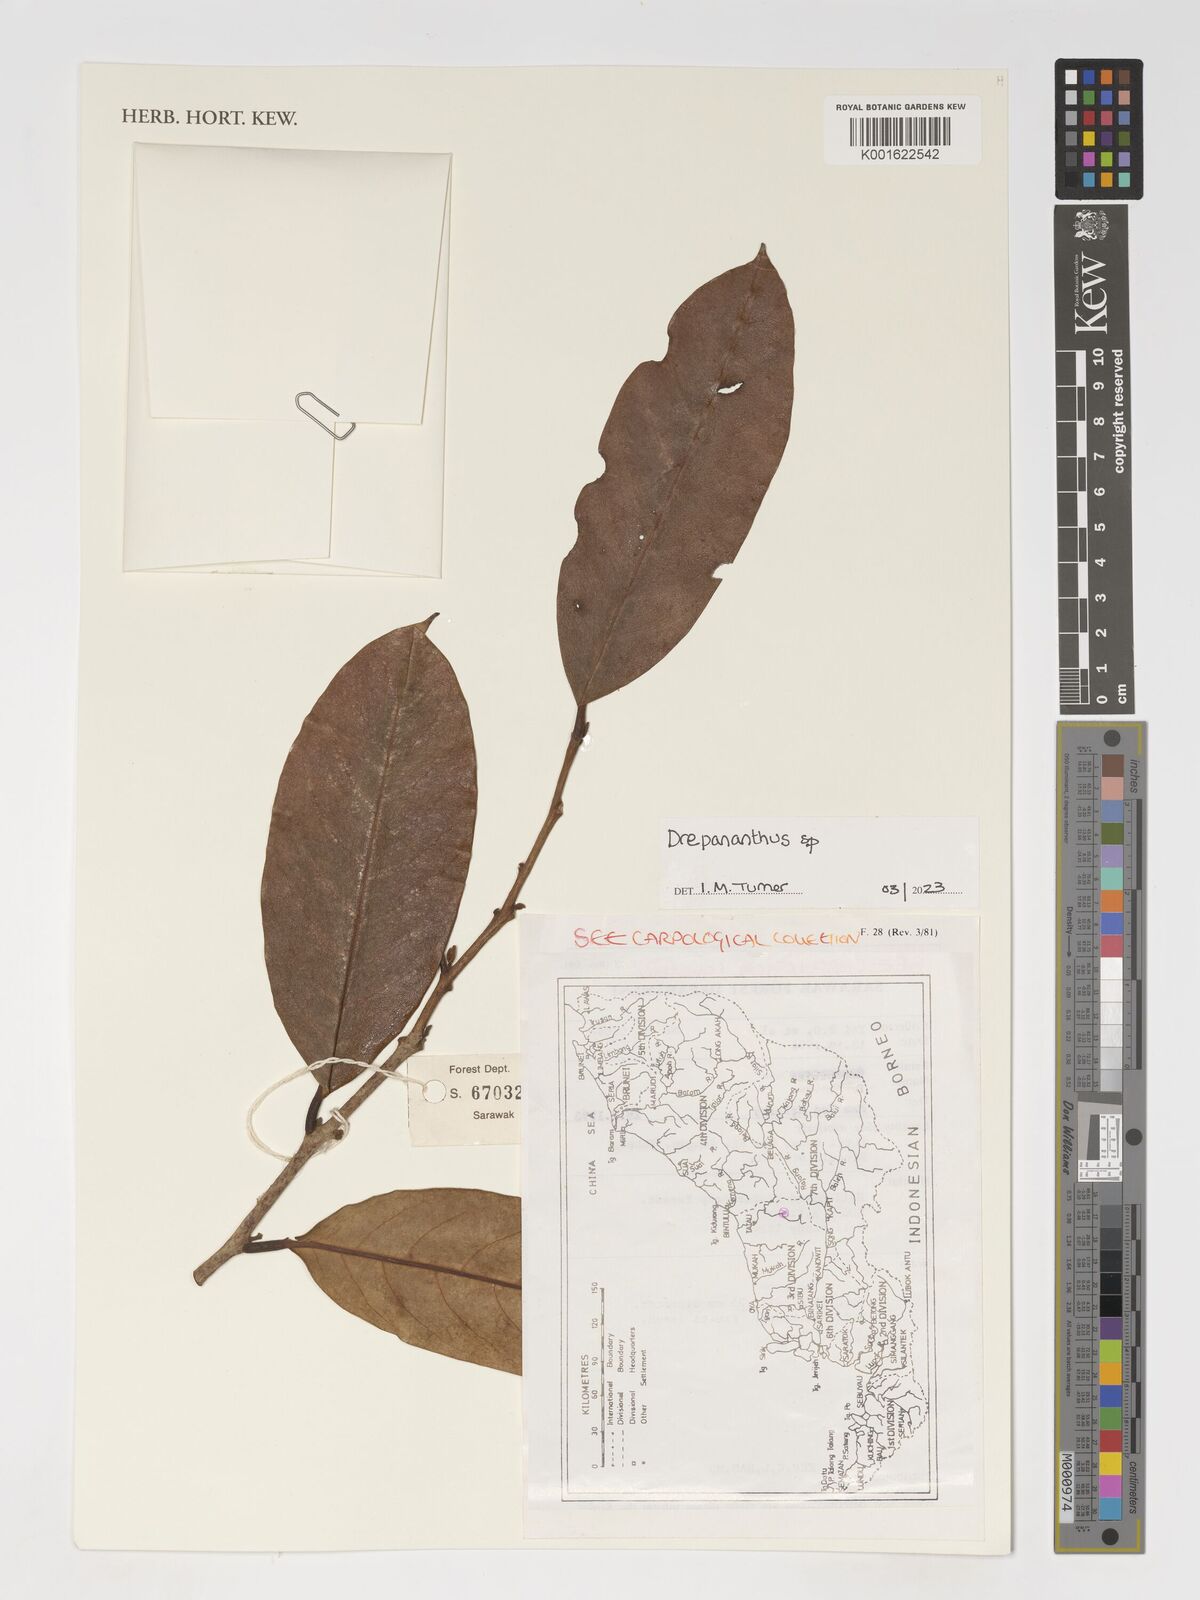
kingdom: Plantae
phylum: Tracheophyta
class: Magnoliopsida
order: Magnoliales
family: Annonaceae
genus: Drepananthus
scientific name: Drepananthus
